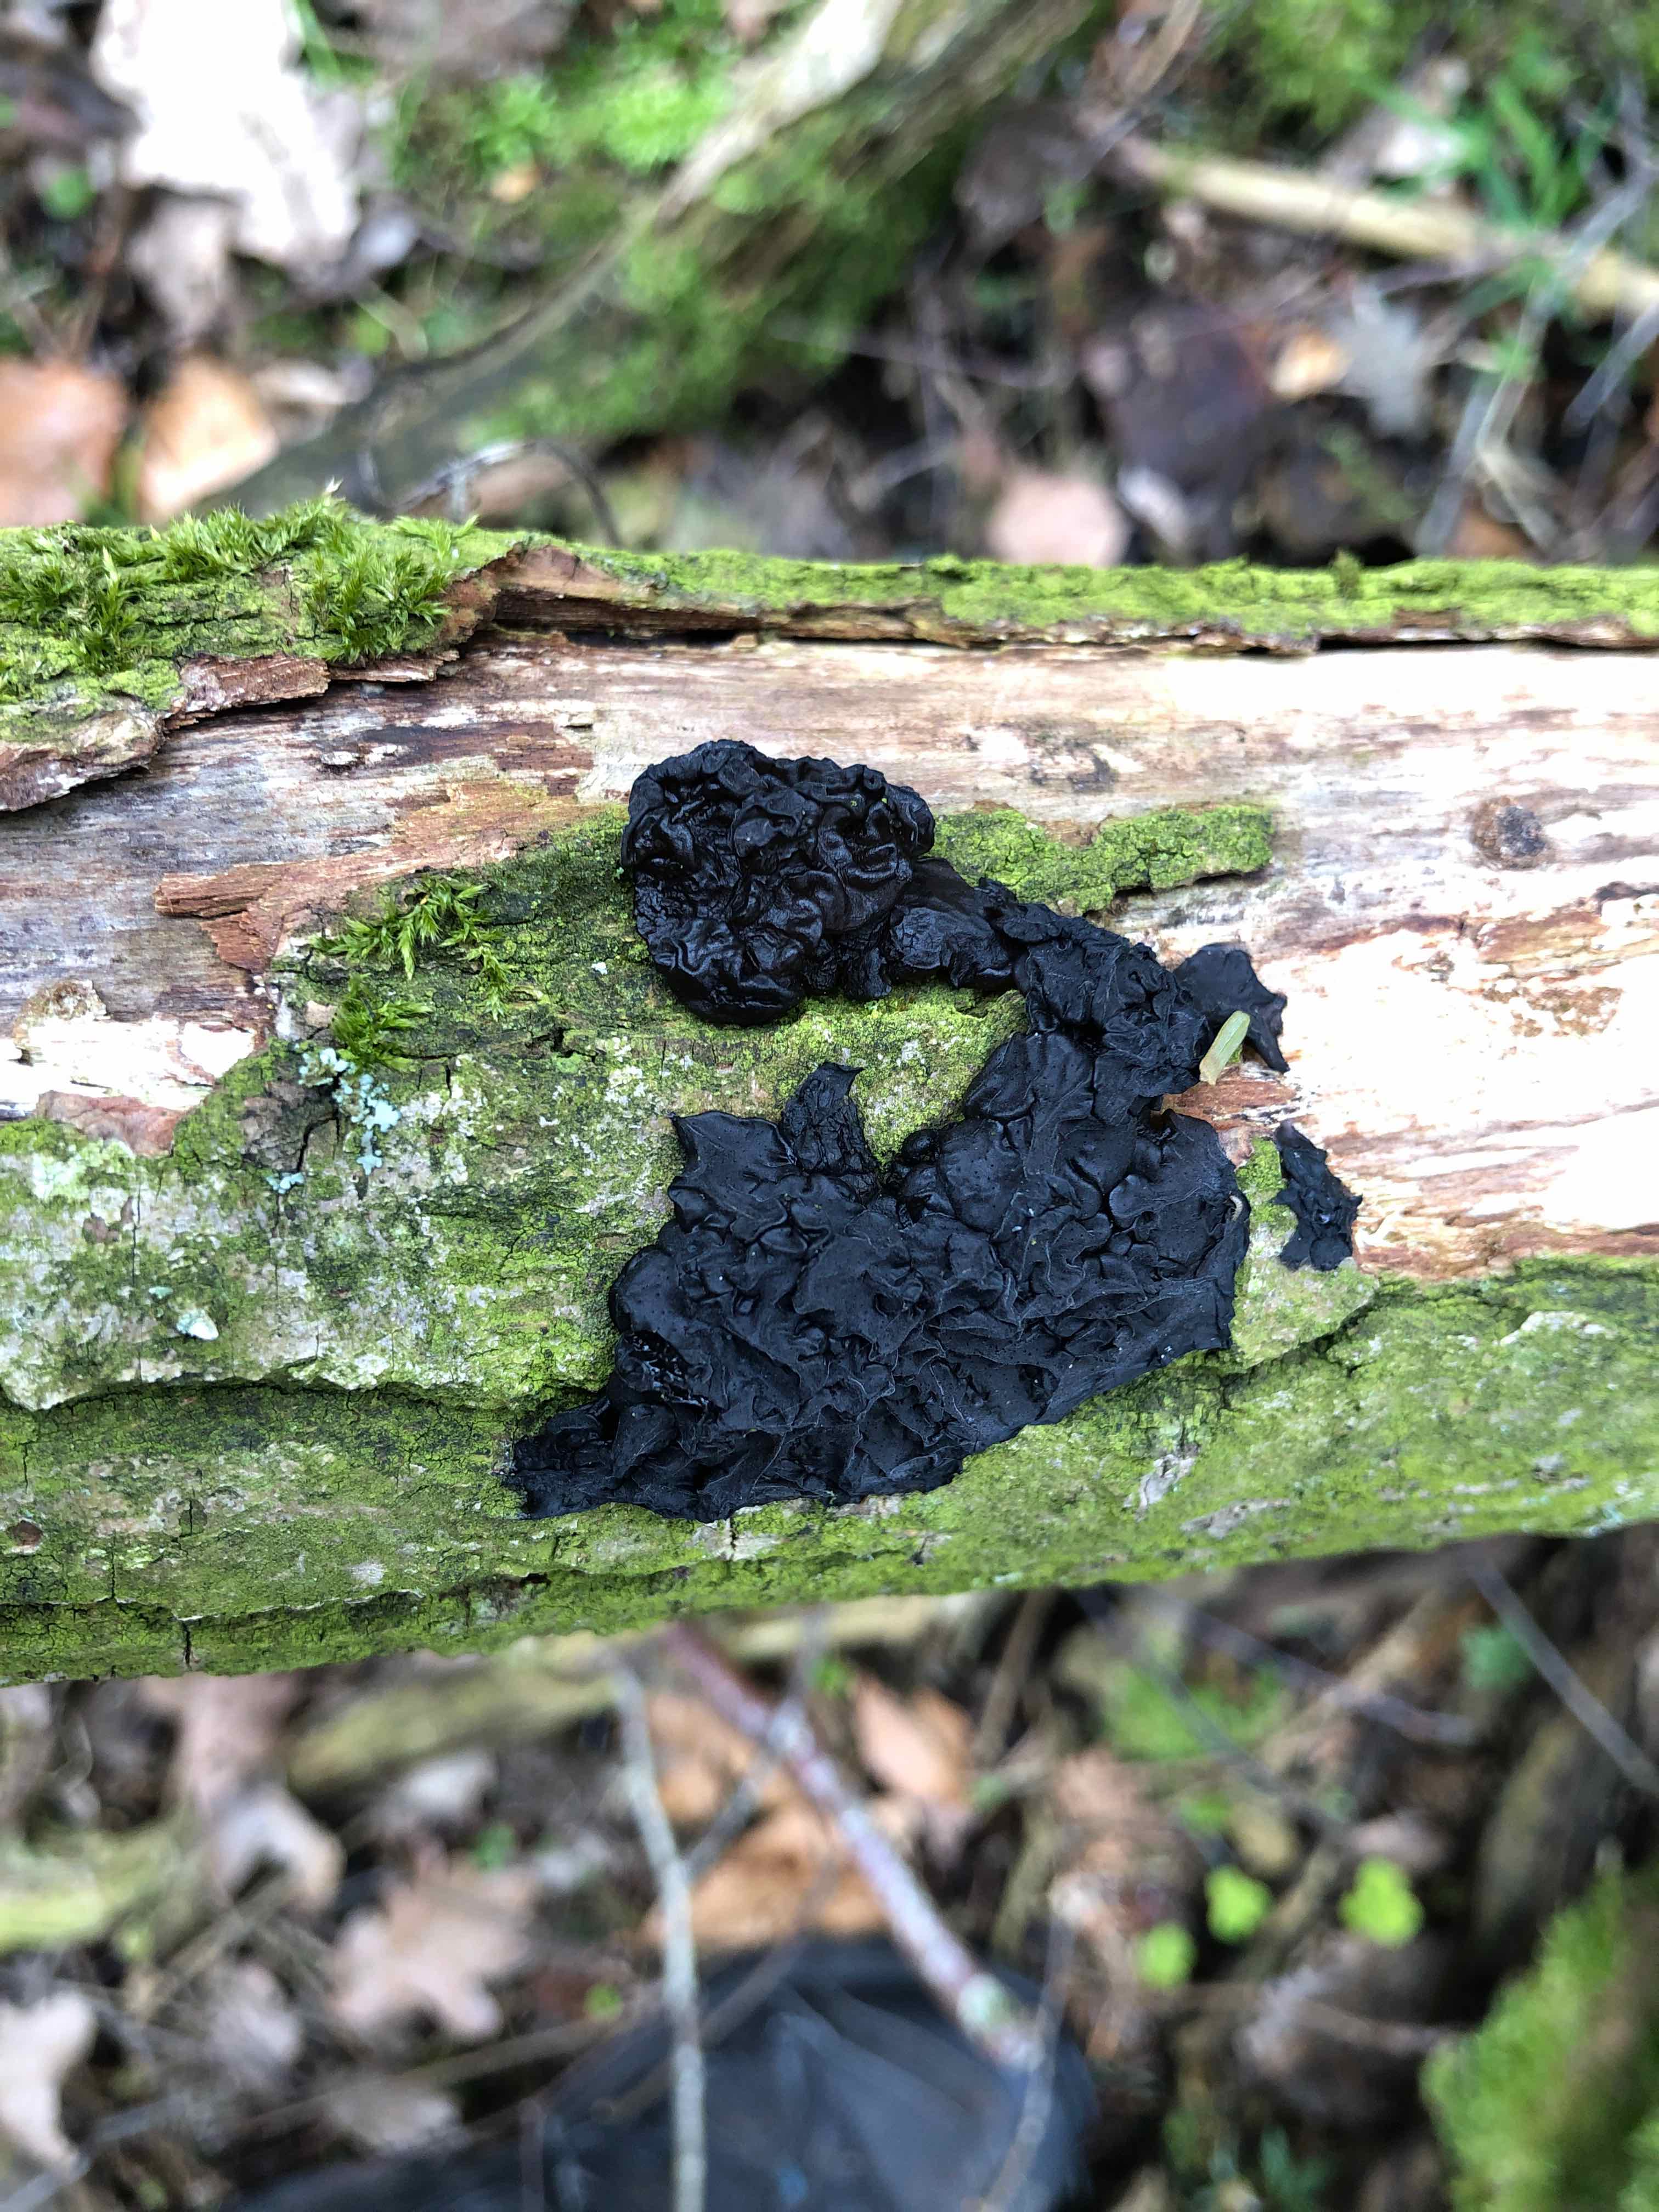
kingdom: Fungi
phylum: Basidiomycota
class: Agaricomycetes
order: Auriculariales
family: Auriculariaceae
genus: Exidia
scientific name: Exidia nigricans
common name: almindelig bævretop
